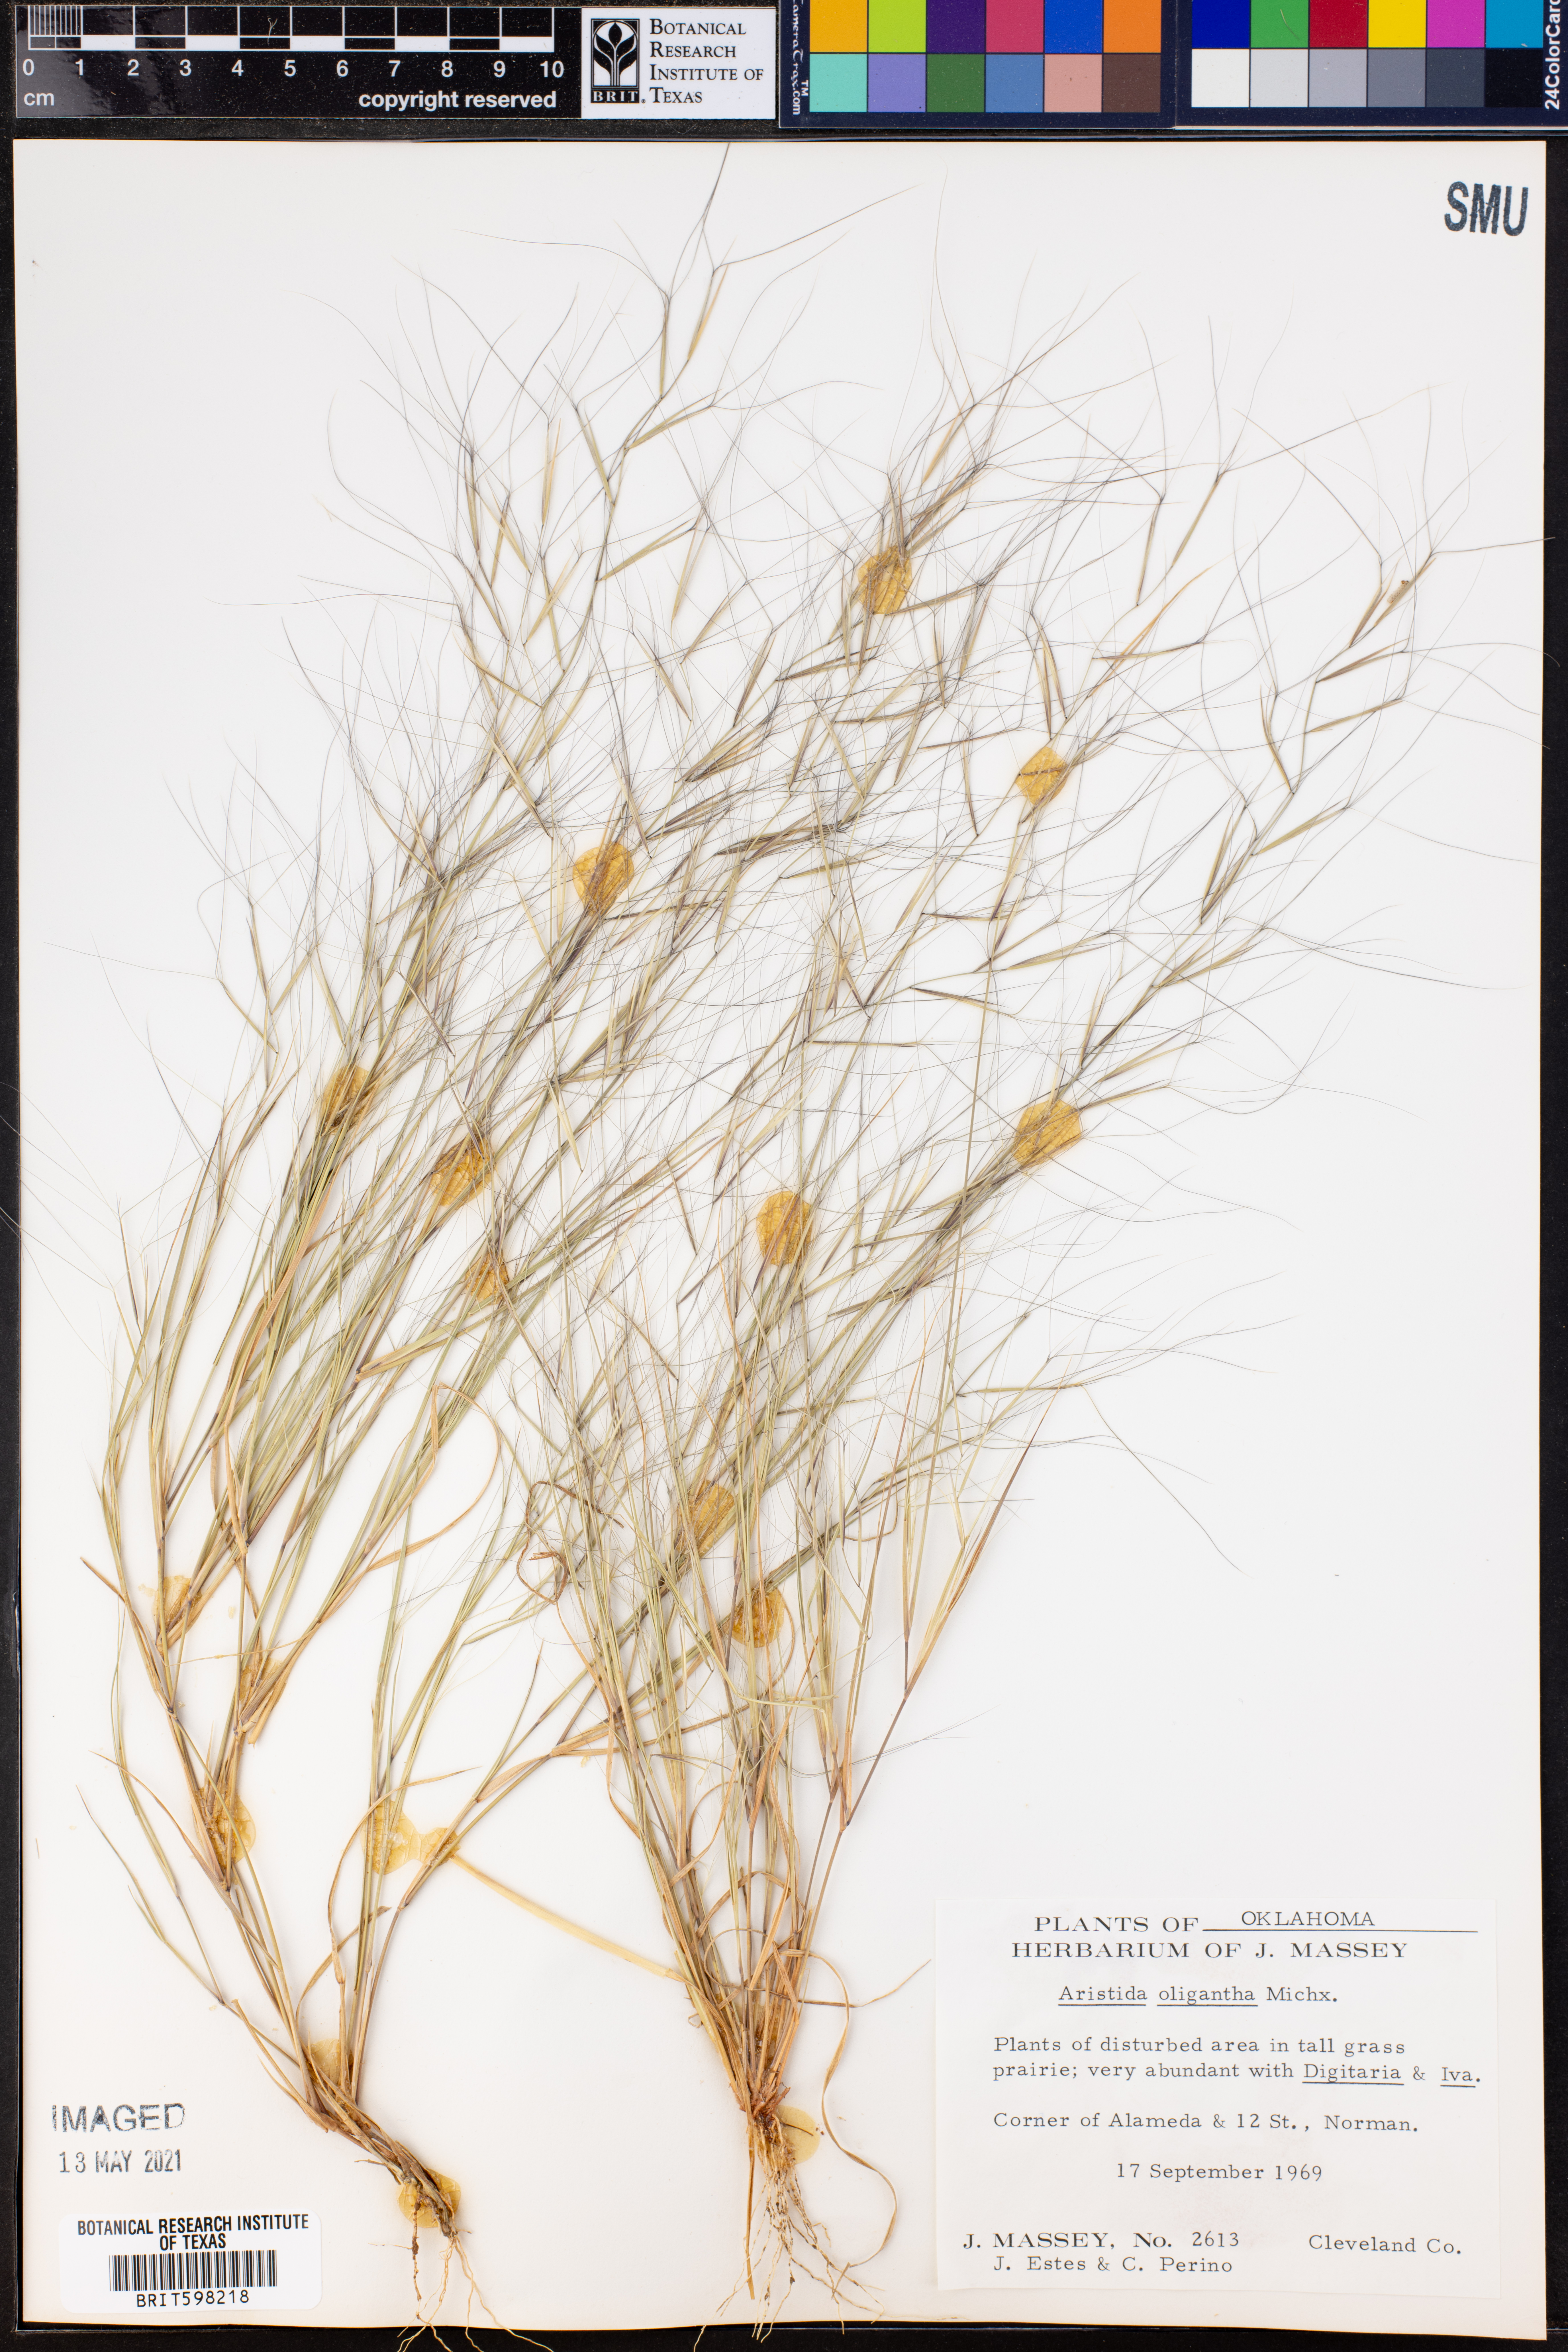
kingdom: Plantae
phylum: Tracheophyta
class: Liliopsida
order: Poales
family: Poaceae
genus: Aristida
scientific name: Aristida oligantha
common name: Few-flowered aristida
